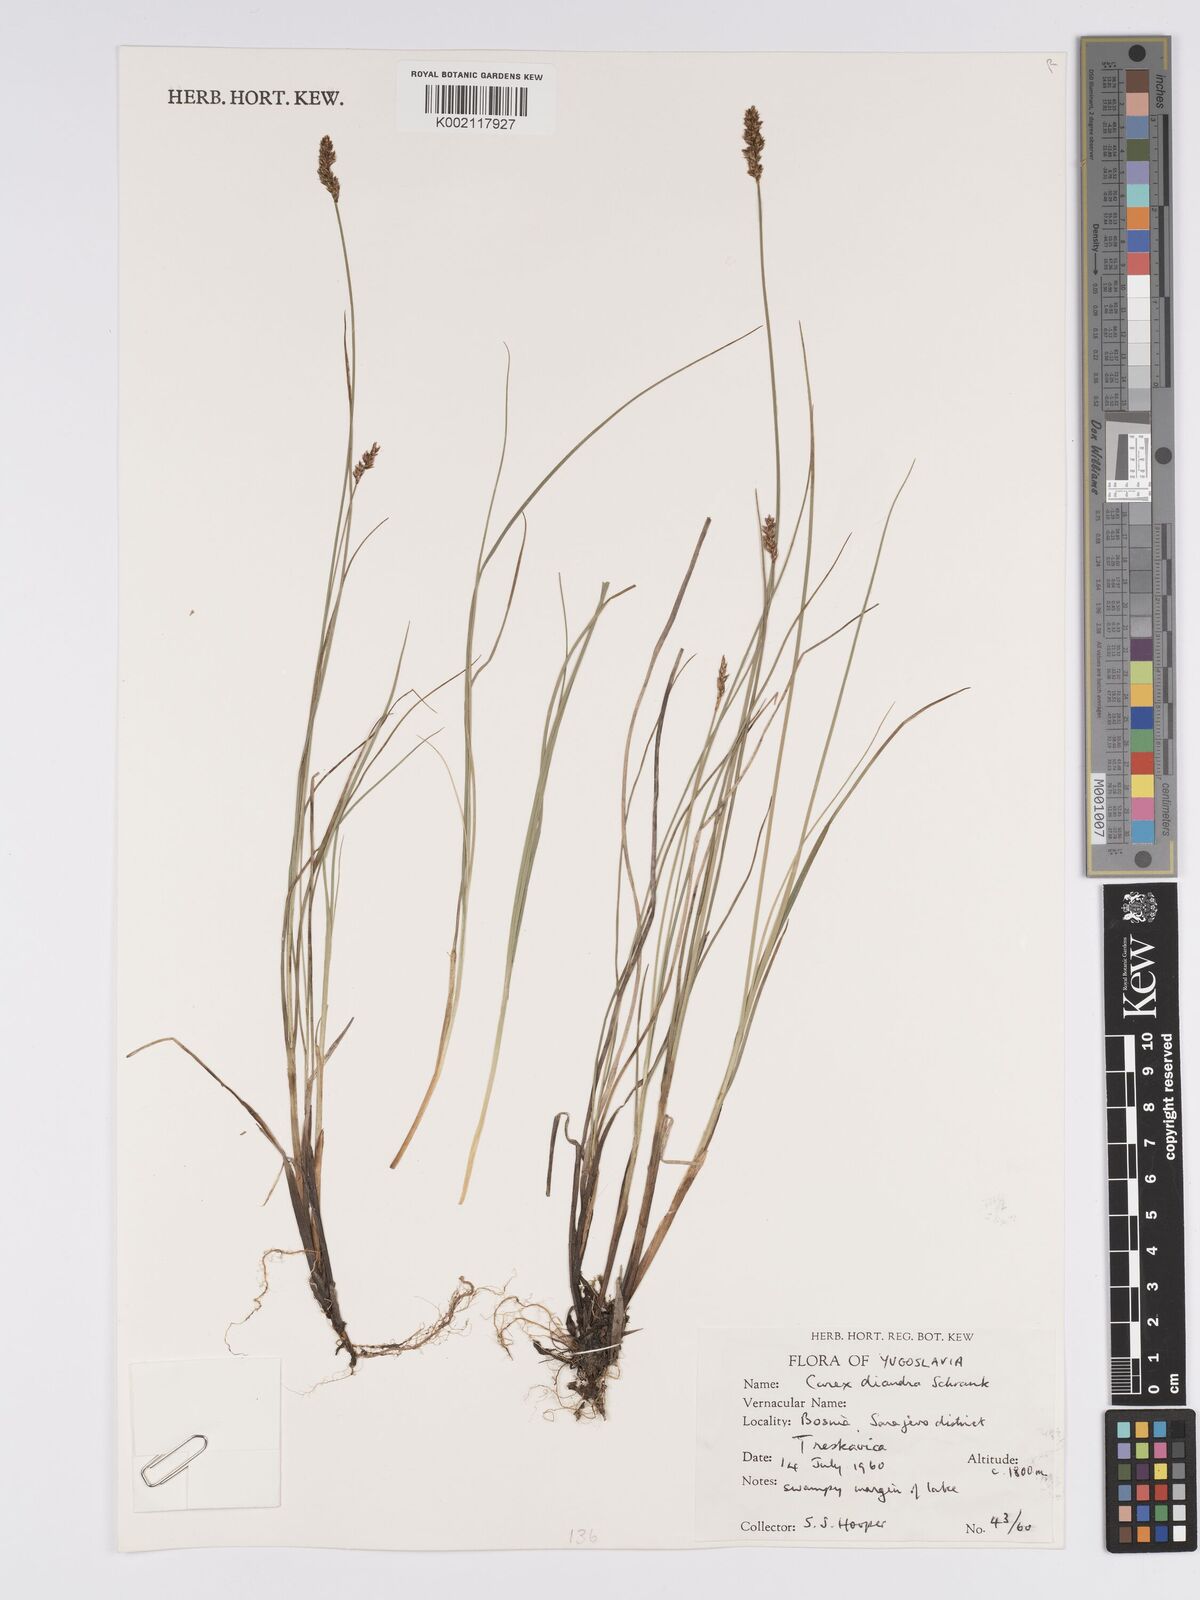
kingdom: Plantae
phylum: Tracheophyta
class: Liliopsida
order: Poales
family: Cyperaceae
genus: Carex
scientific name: Carex diandra
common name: Lesser tussock-sedge
